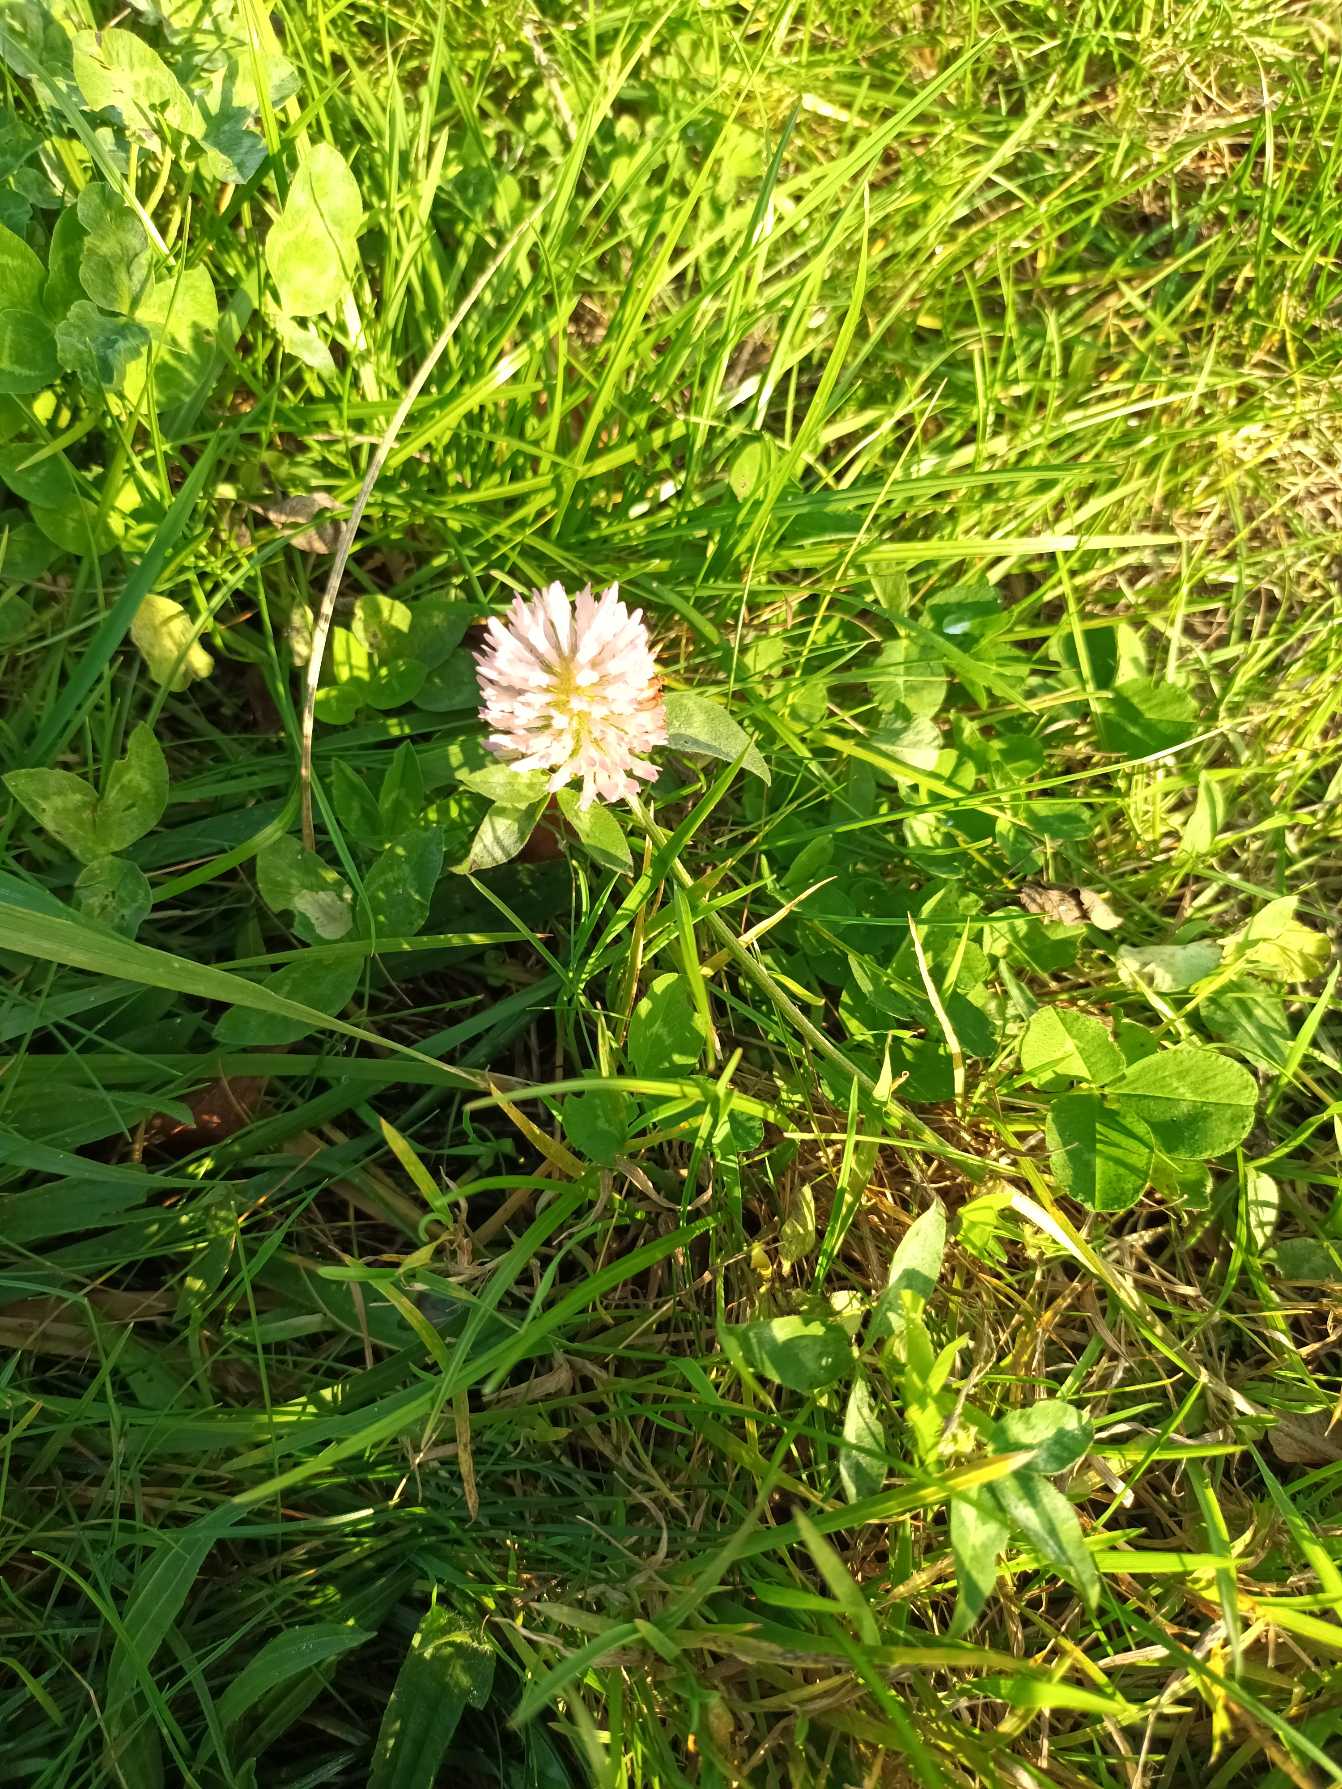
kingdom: Plantae
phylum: Tracheophyta
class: Magnoliopsida
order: Fabales
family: Fabaceae
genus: Trifolium
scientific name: Trifolium pratense
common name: Rød-kløver
